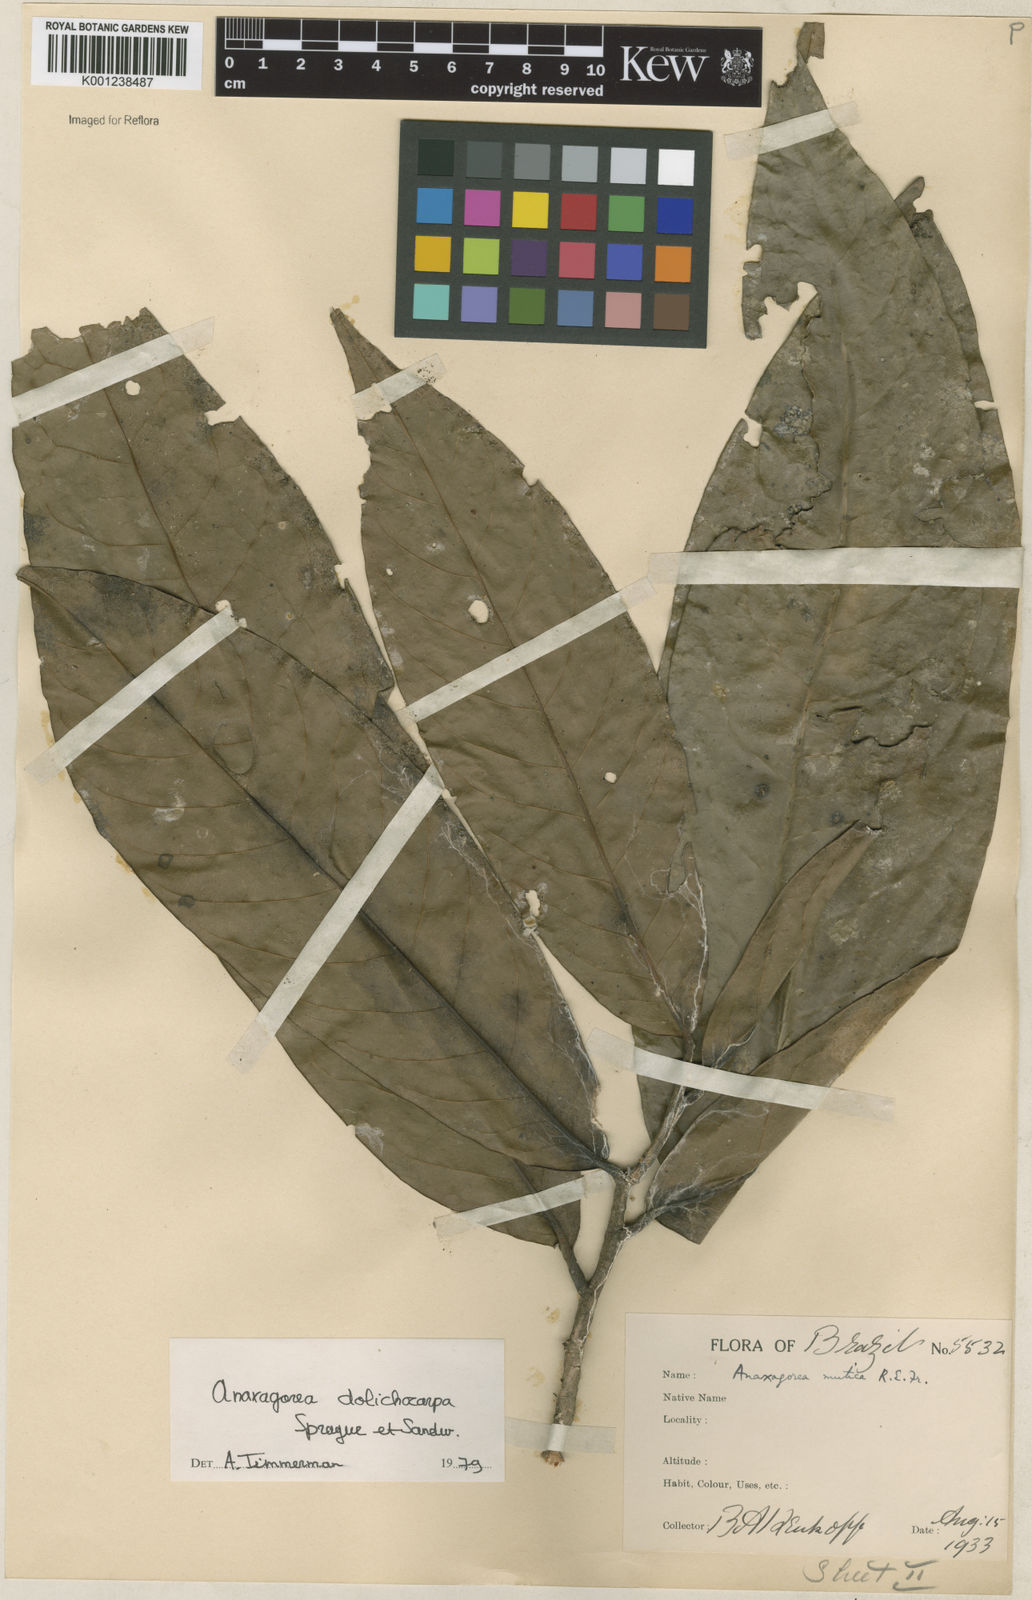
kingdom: Plantae
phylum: Tracheophyta
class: Magnoliopsida
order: Magnoliales
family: Annonaceae
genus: Anaxagorea
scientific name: Anaxagorea dolichocarpa
